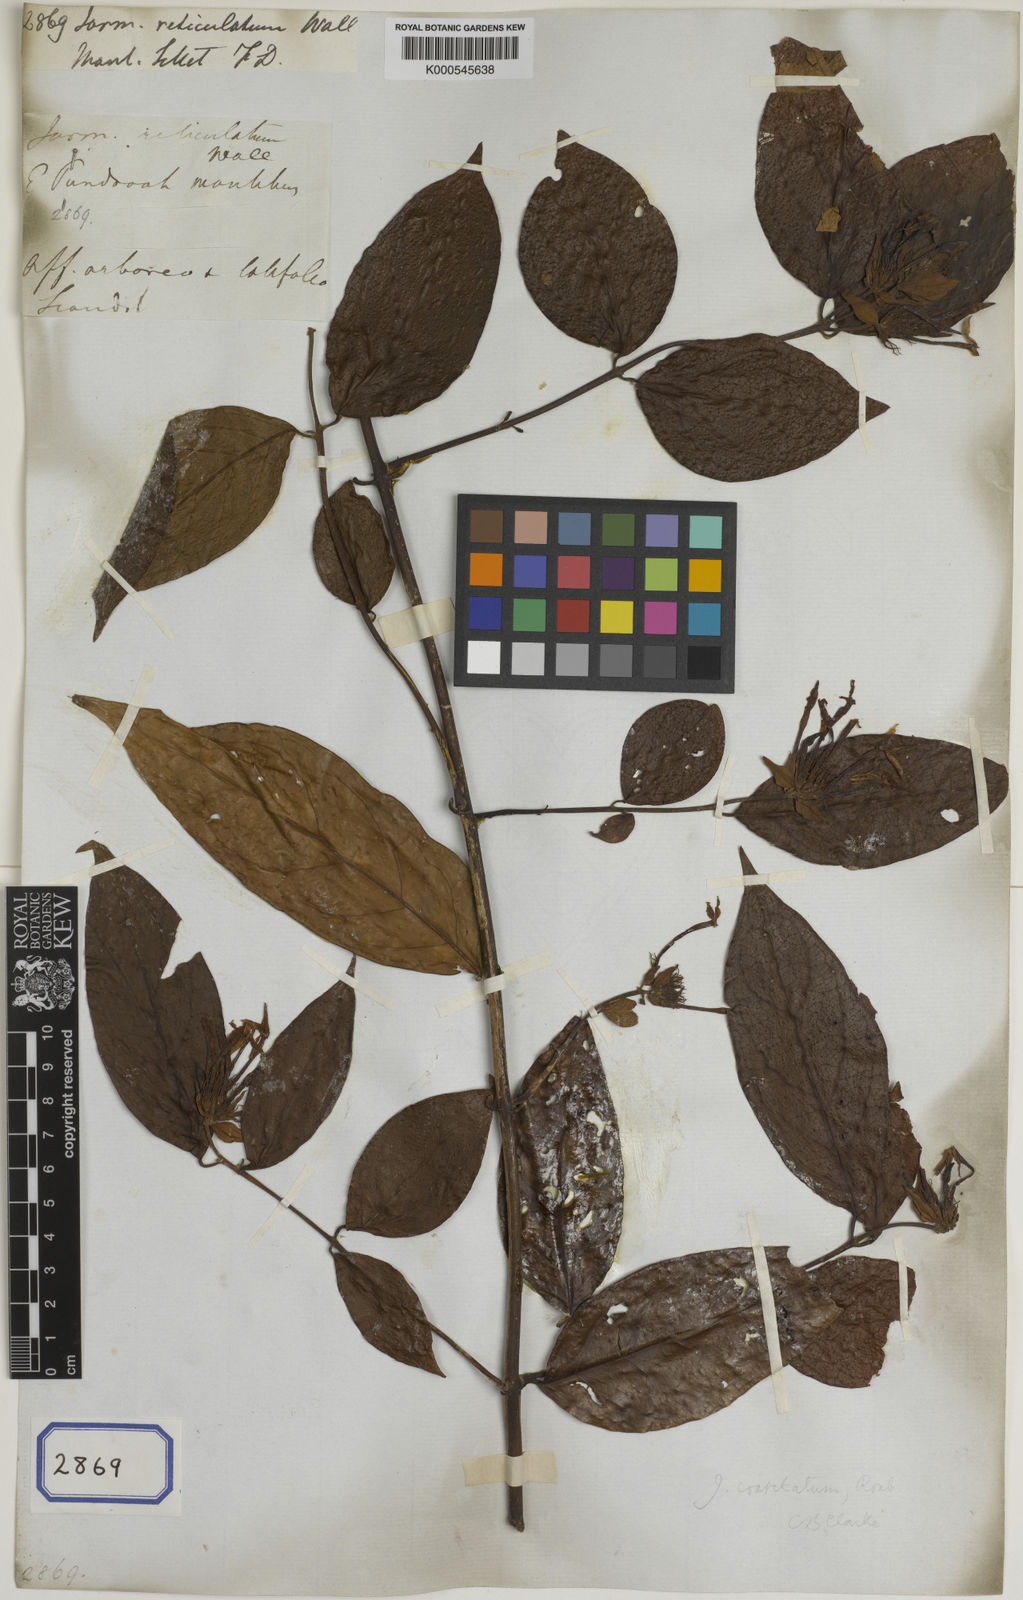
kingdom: Plantae
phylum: Tracheophyta
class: Magnoliopsida
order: Lamiales
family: Oleaceae
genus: Jasminum
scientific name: Jasminum coarctatum
